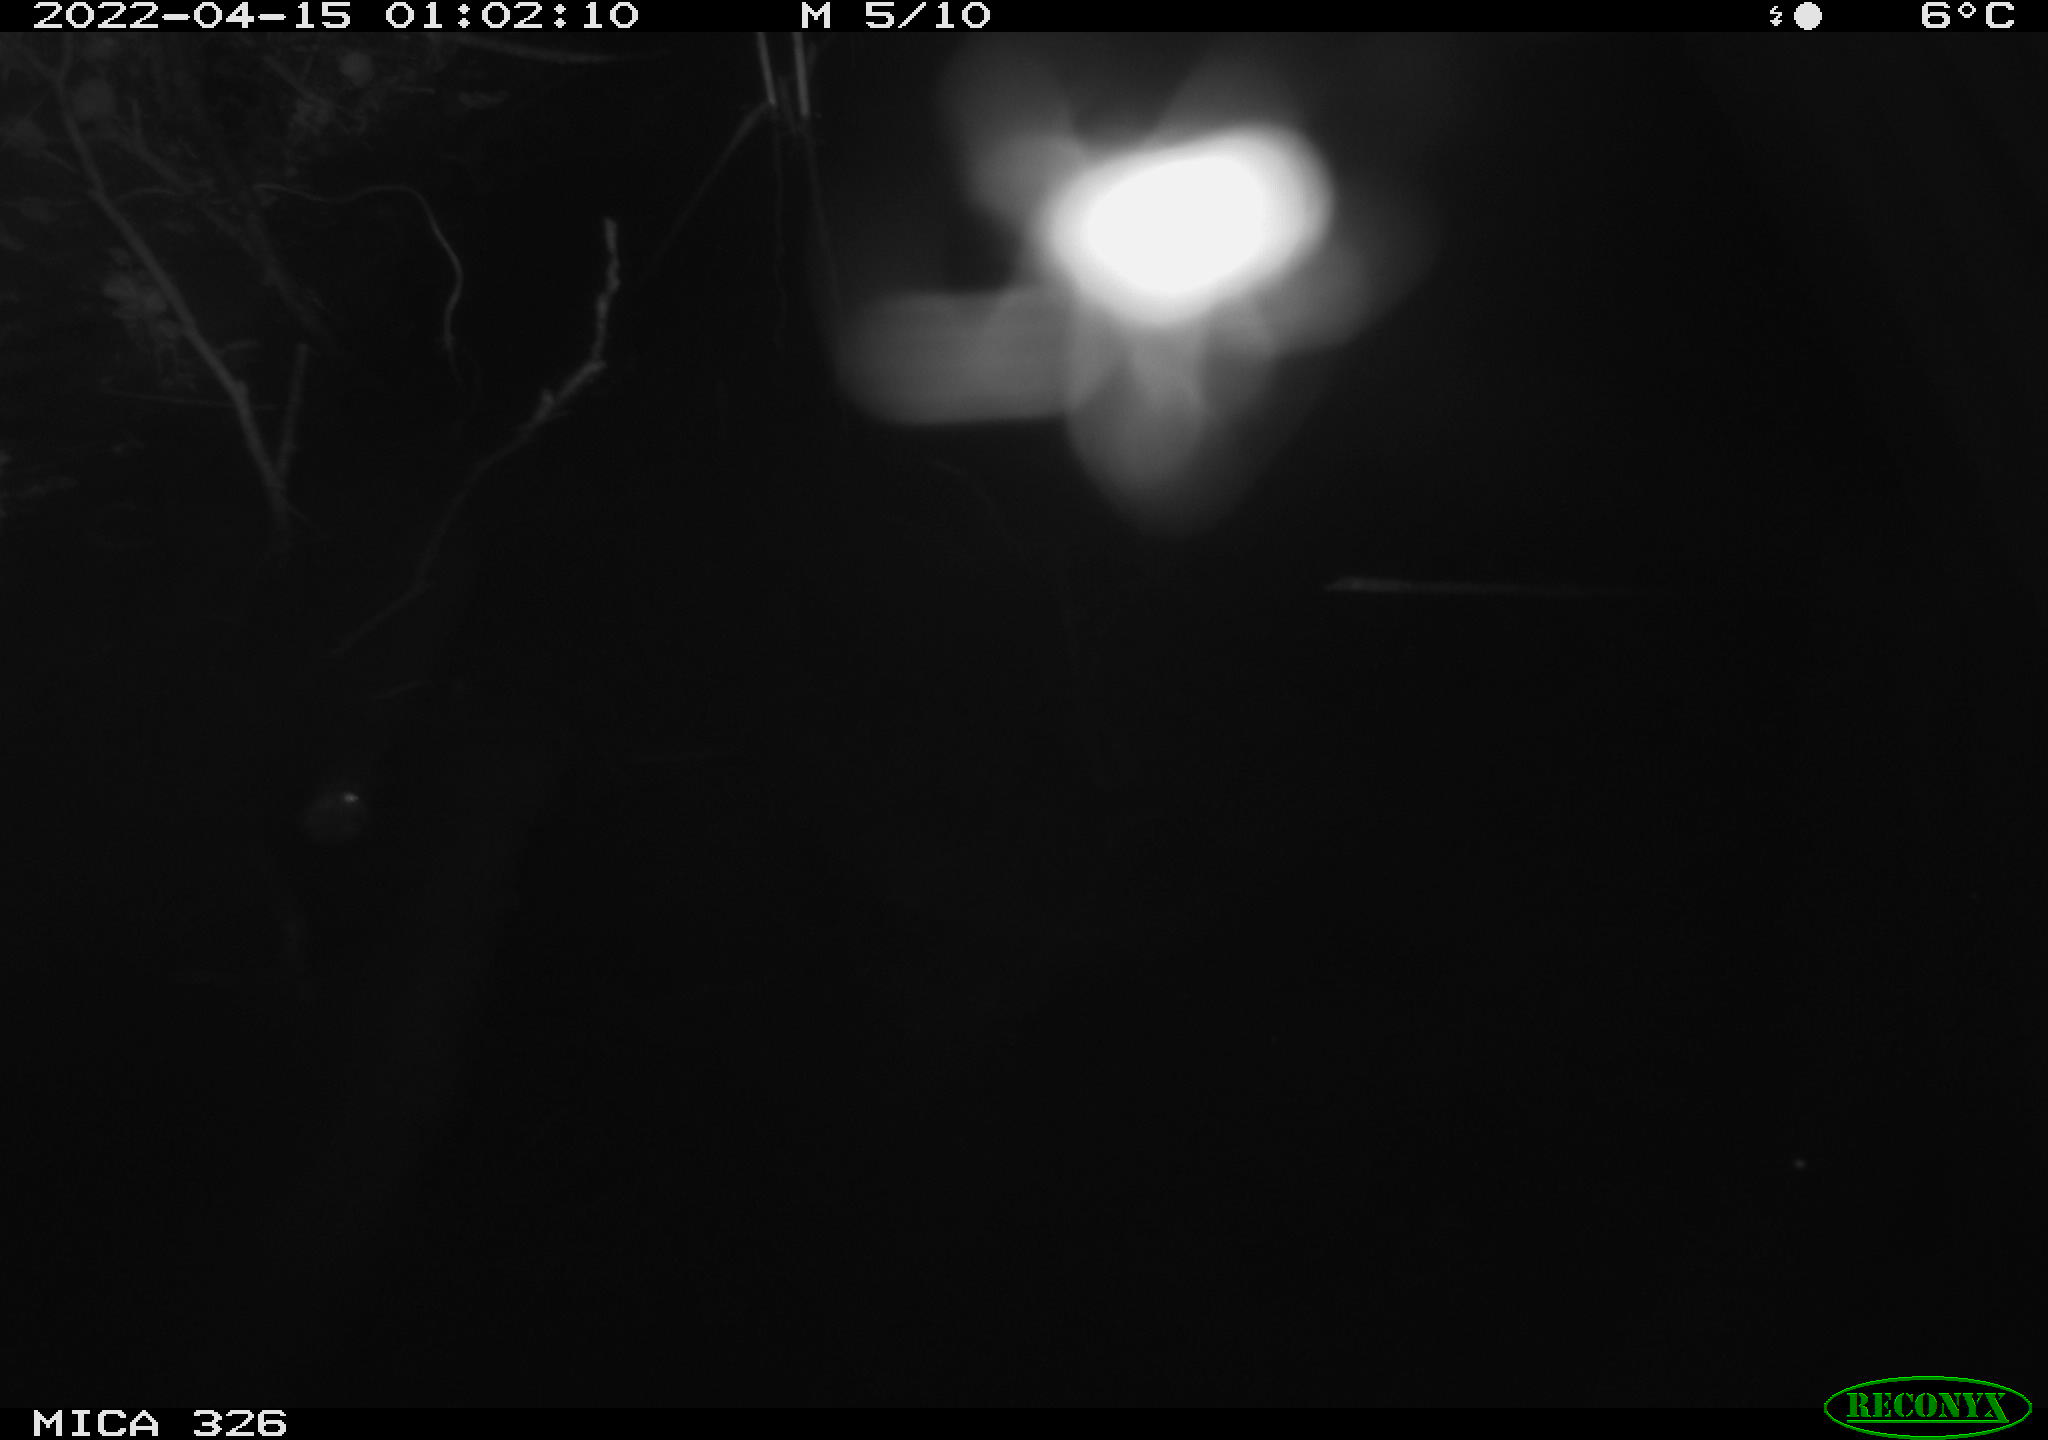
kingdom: Animalia
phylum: Chordata
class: Mammalia
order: Rodentia
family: Cricetidae
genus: Ondatra
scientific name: Ondatra zibethicus
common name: Muskrat
